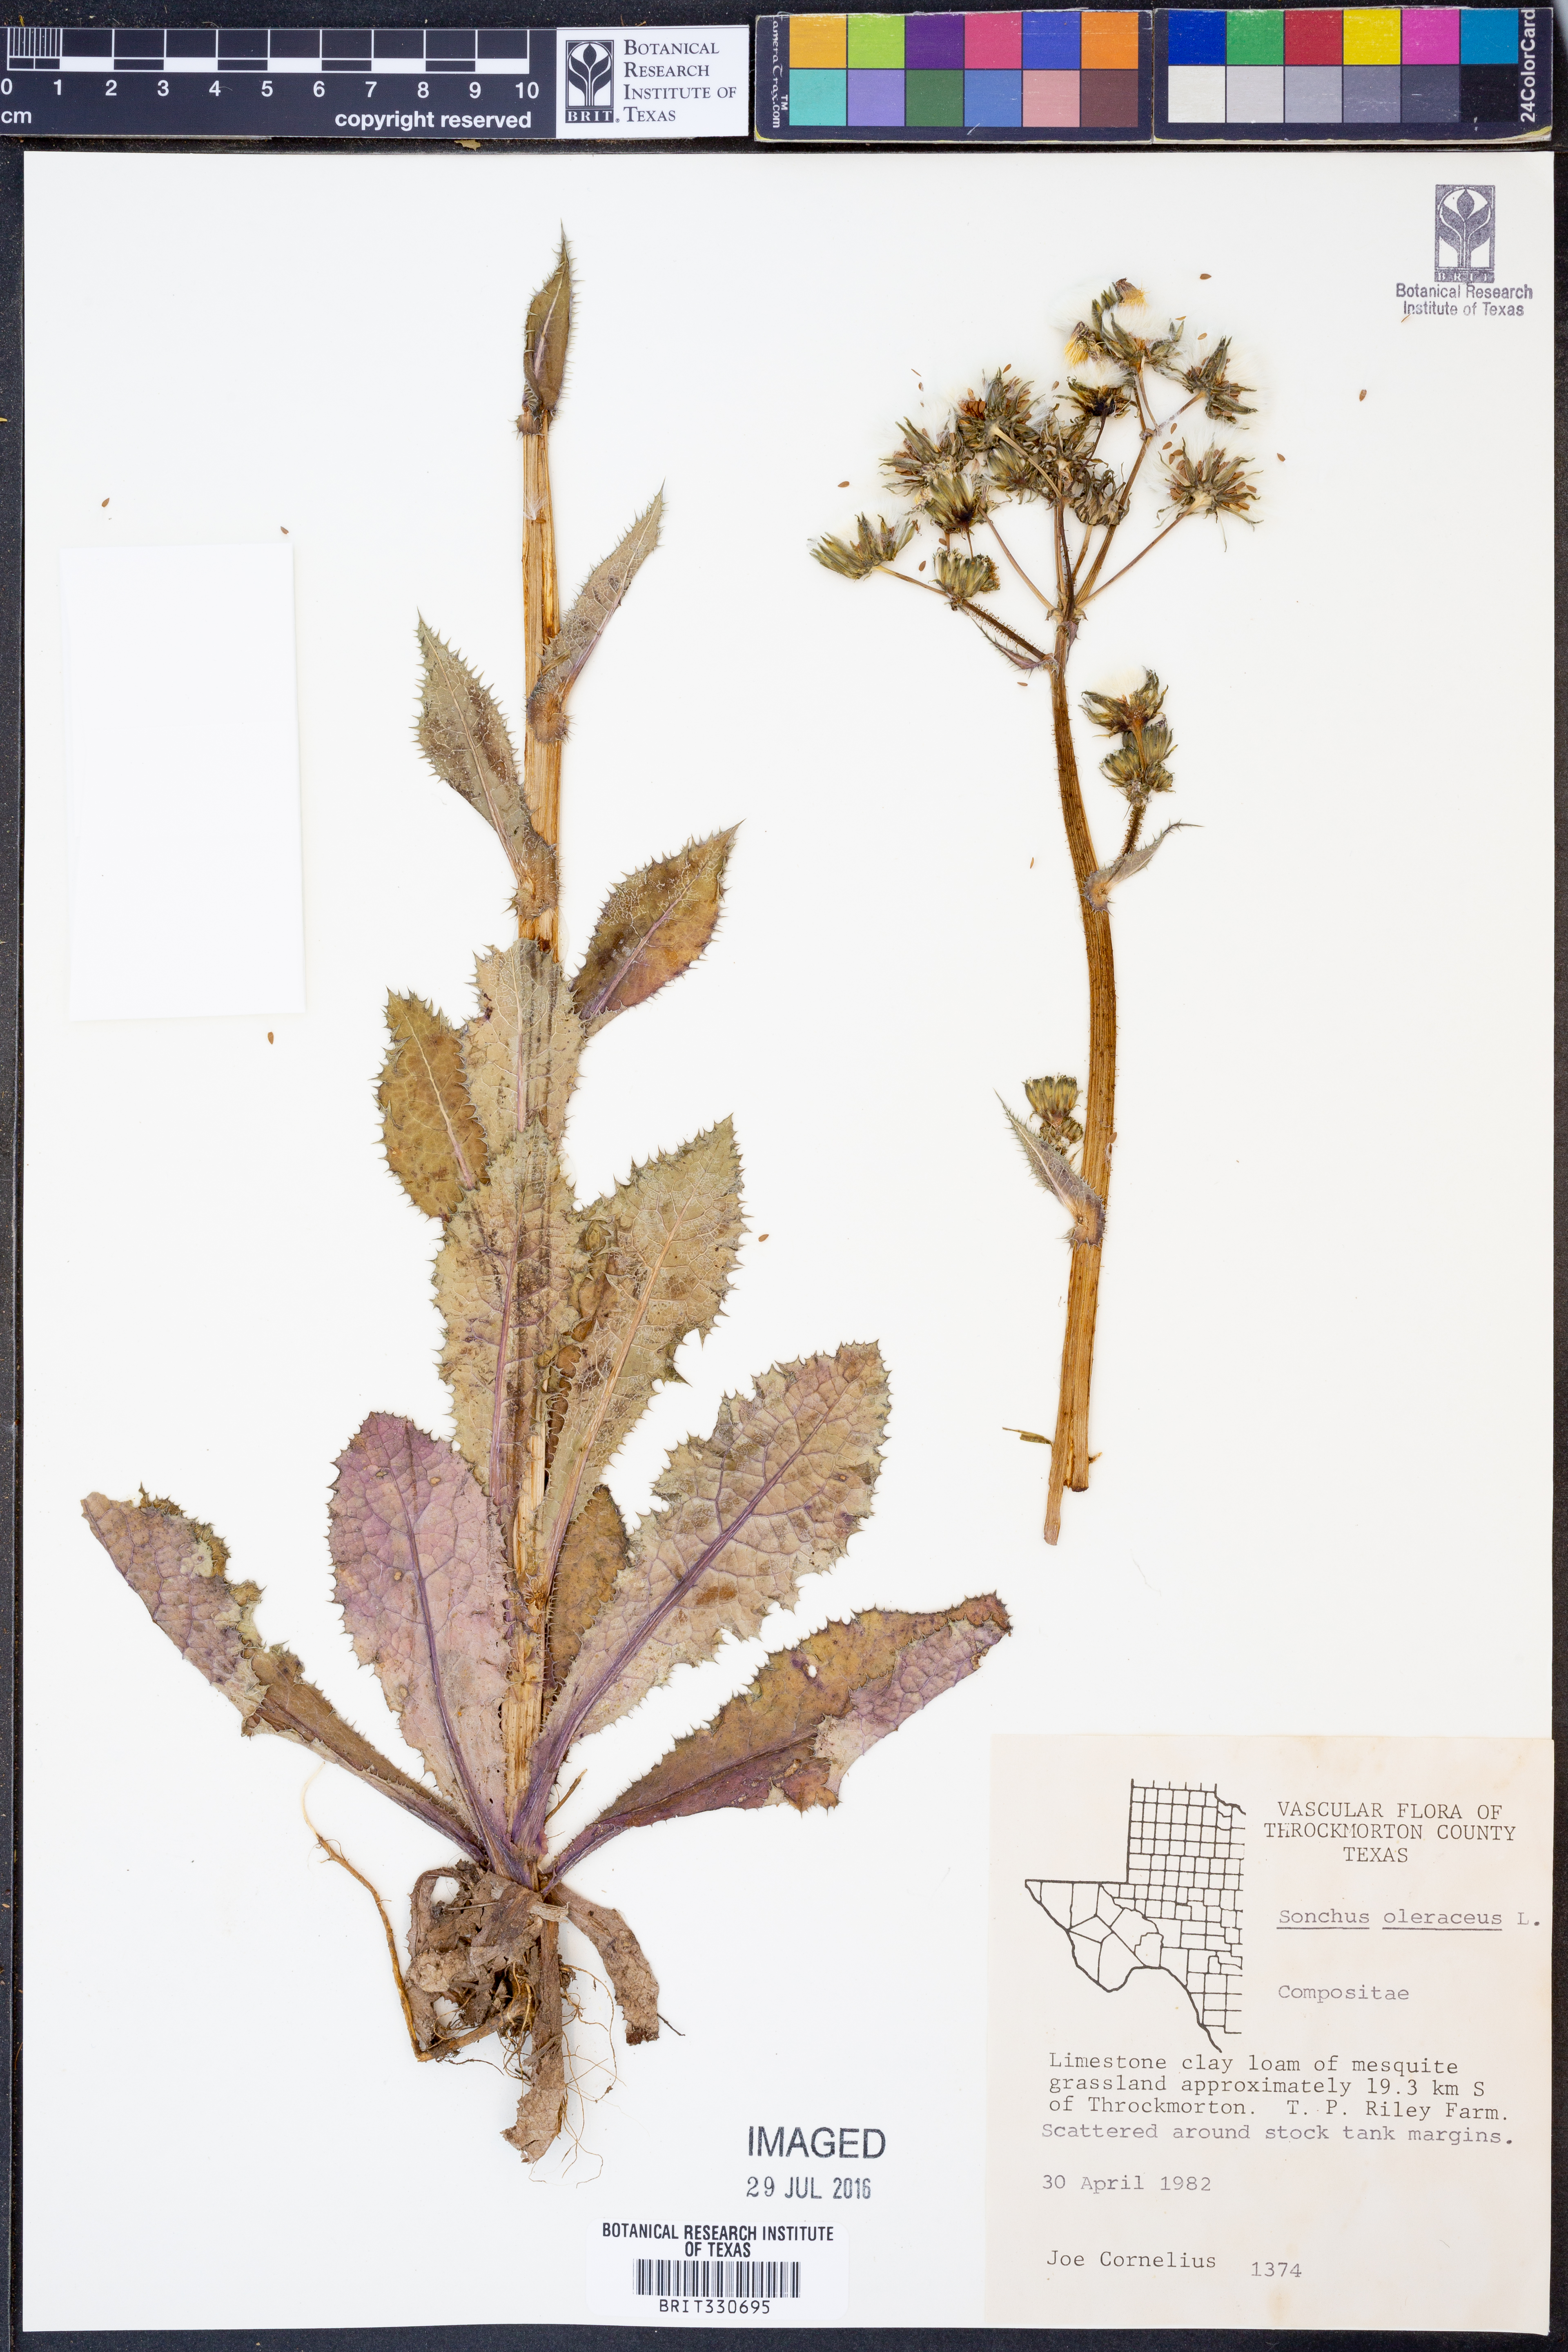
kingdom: Plantae
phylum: Tracheophyta
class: Magnoliopsida
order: Asterales
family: Asteraceae
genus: Sonchus
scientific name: Sonchus oleraceus
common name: Common sowthistle
